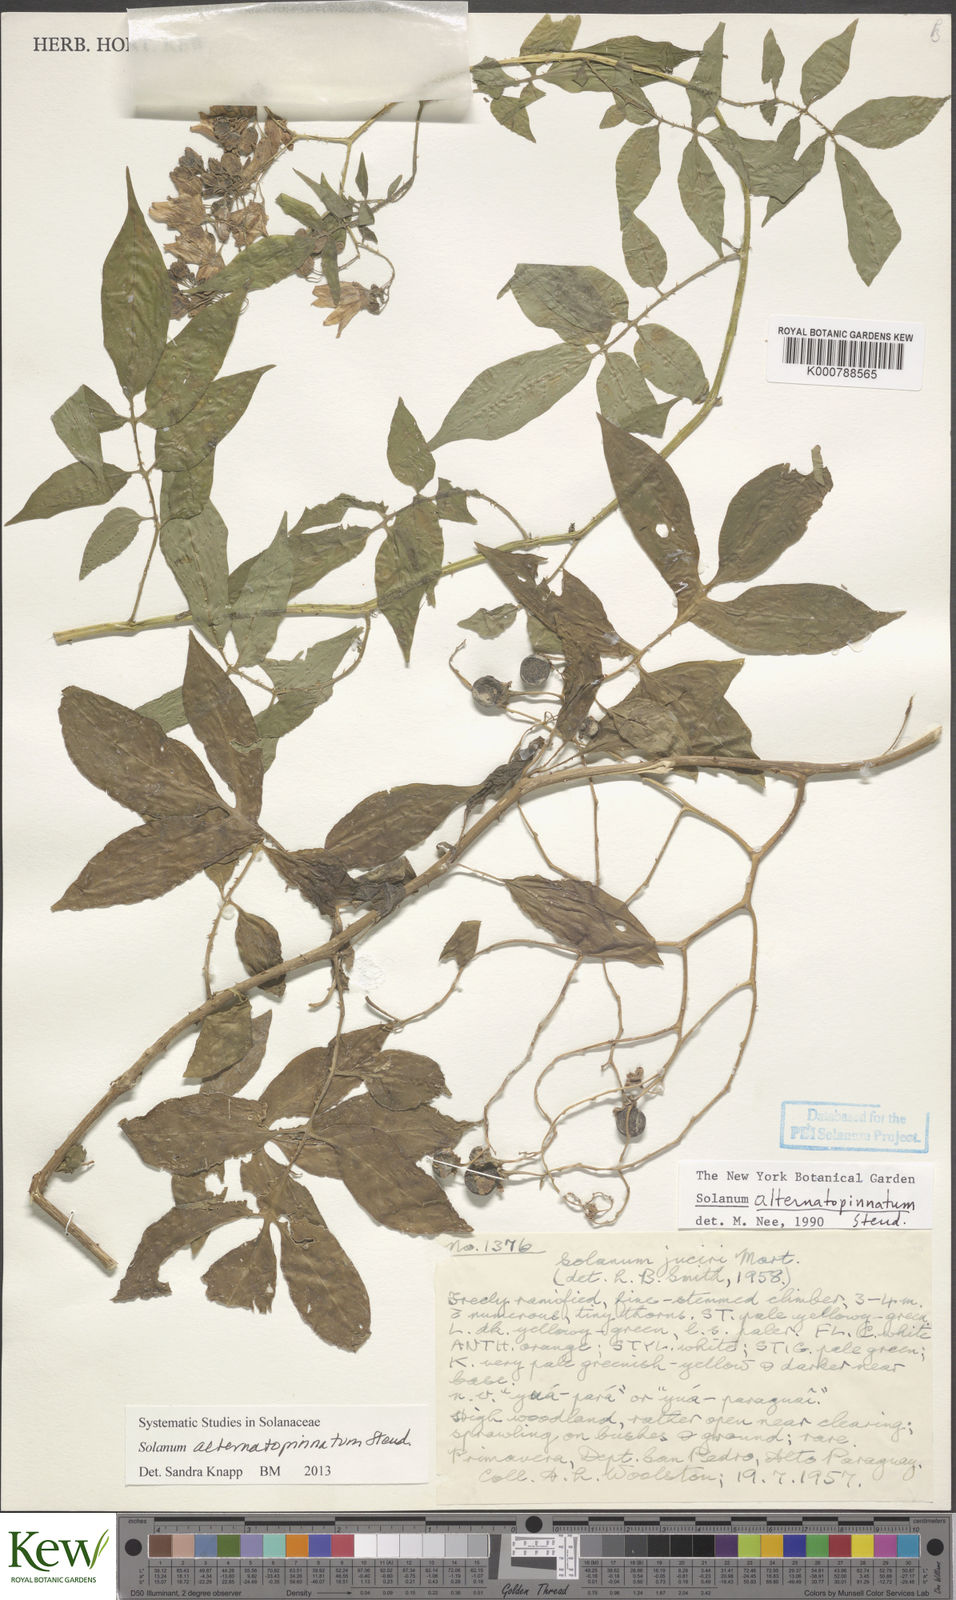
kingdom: Plantae
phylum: Tracheophyta
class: Magnoliopsida
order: Solanales
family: Solanaceae
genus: Solanum
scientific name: Solanum alternatopinnatum
